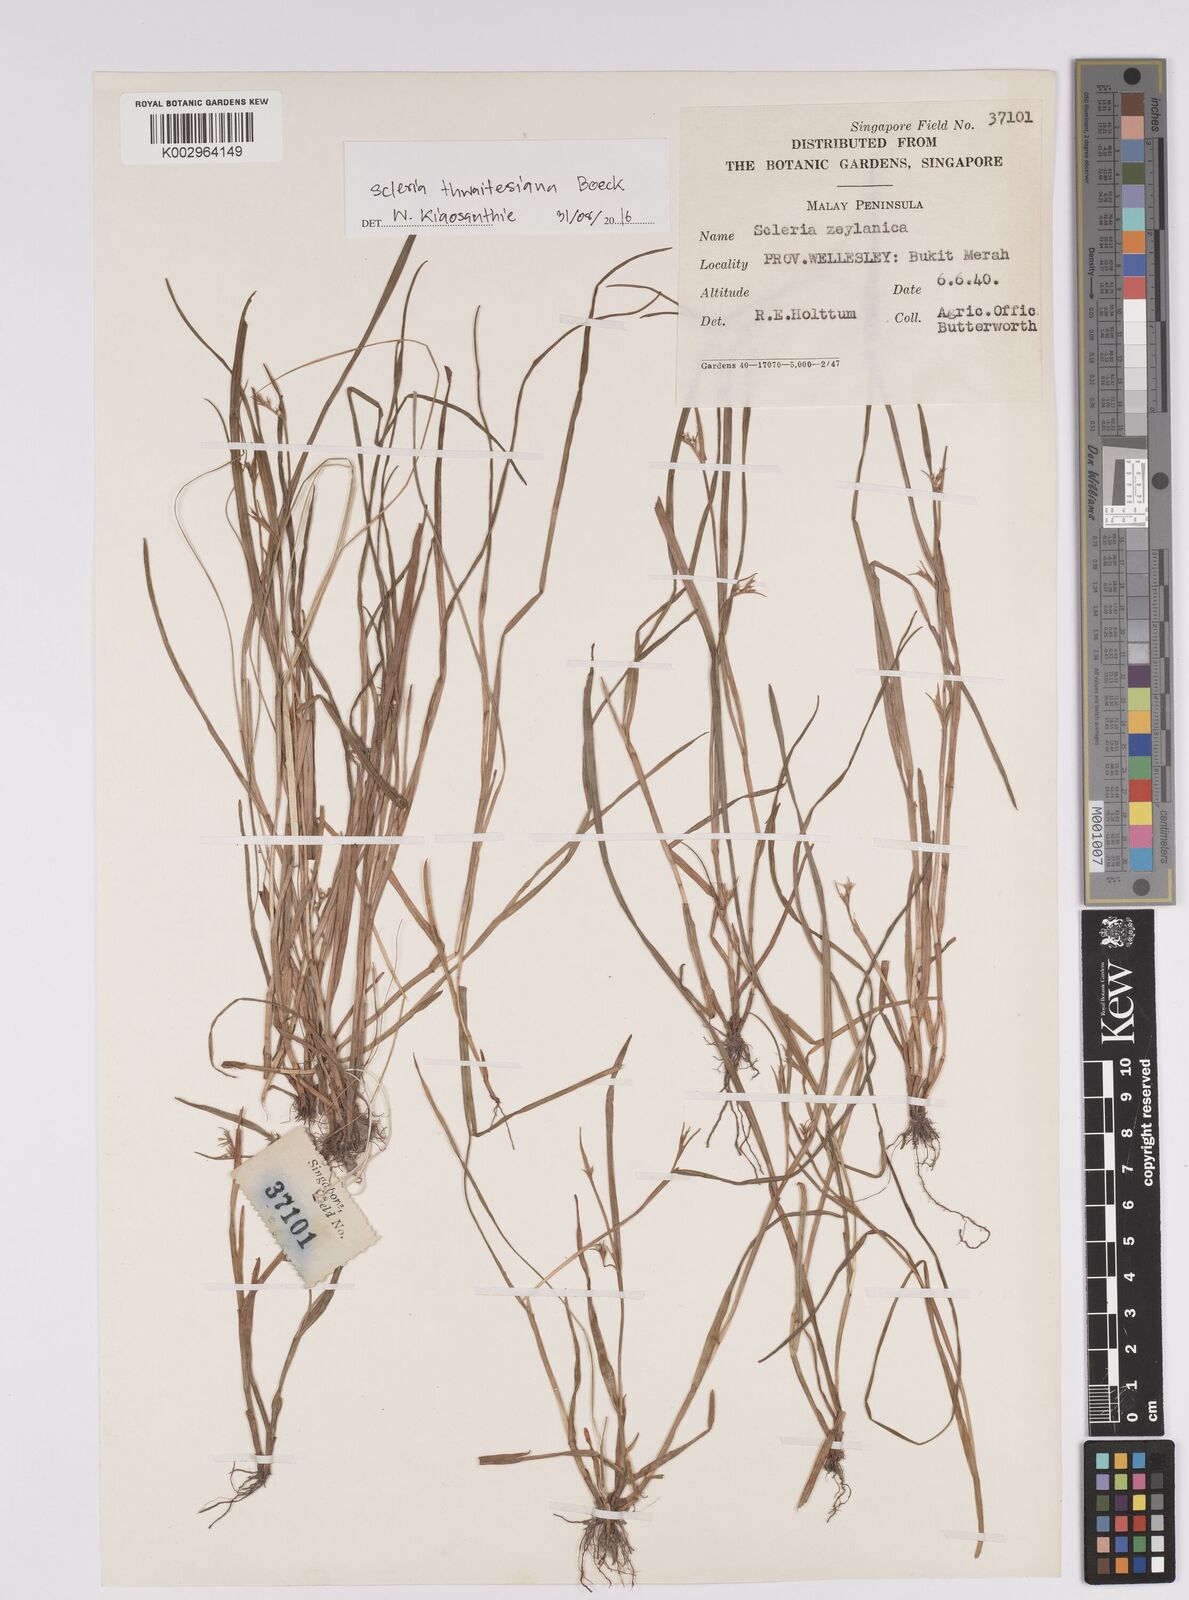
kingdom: Plantae
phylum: Tracheophyta
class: Liliopsida
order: Poales
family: Cyperaceae
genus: Scleria
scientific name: Scleria thwaitesiana
